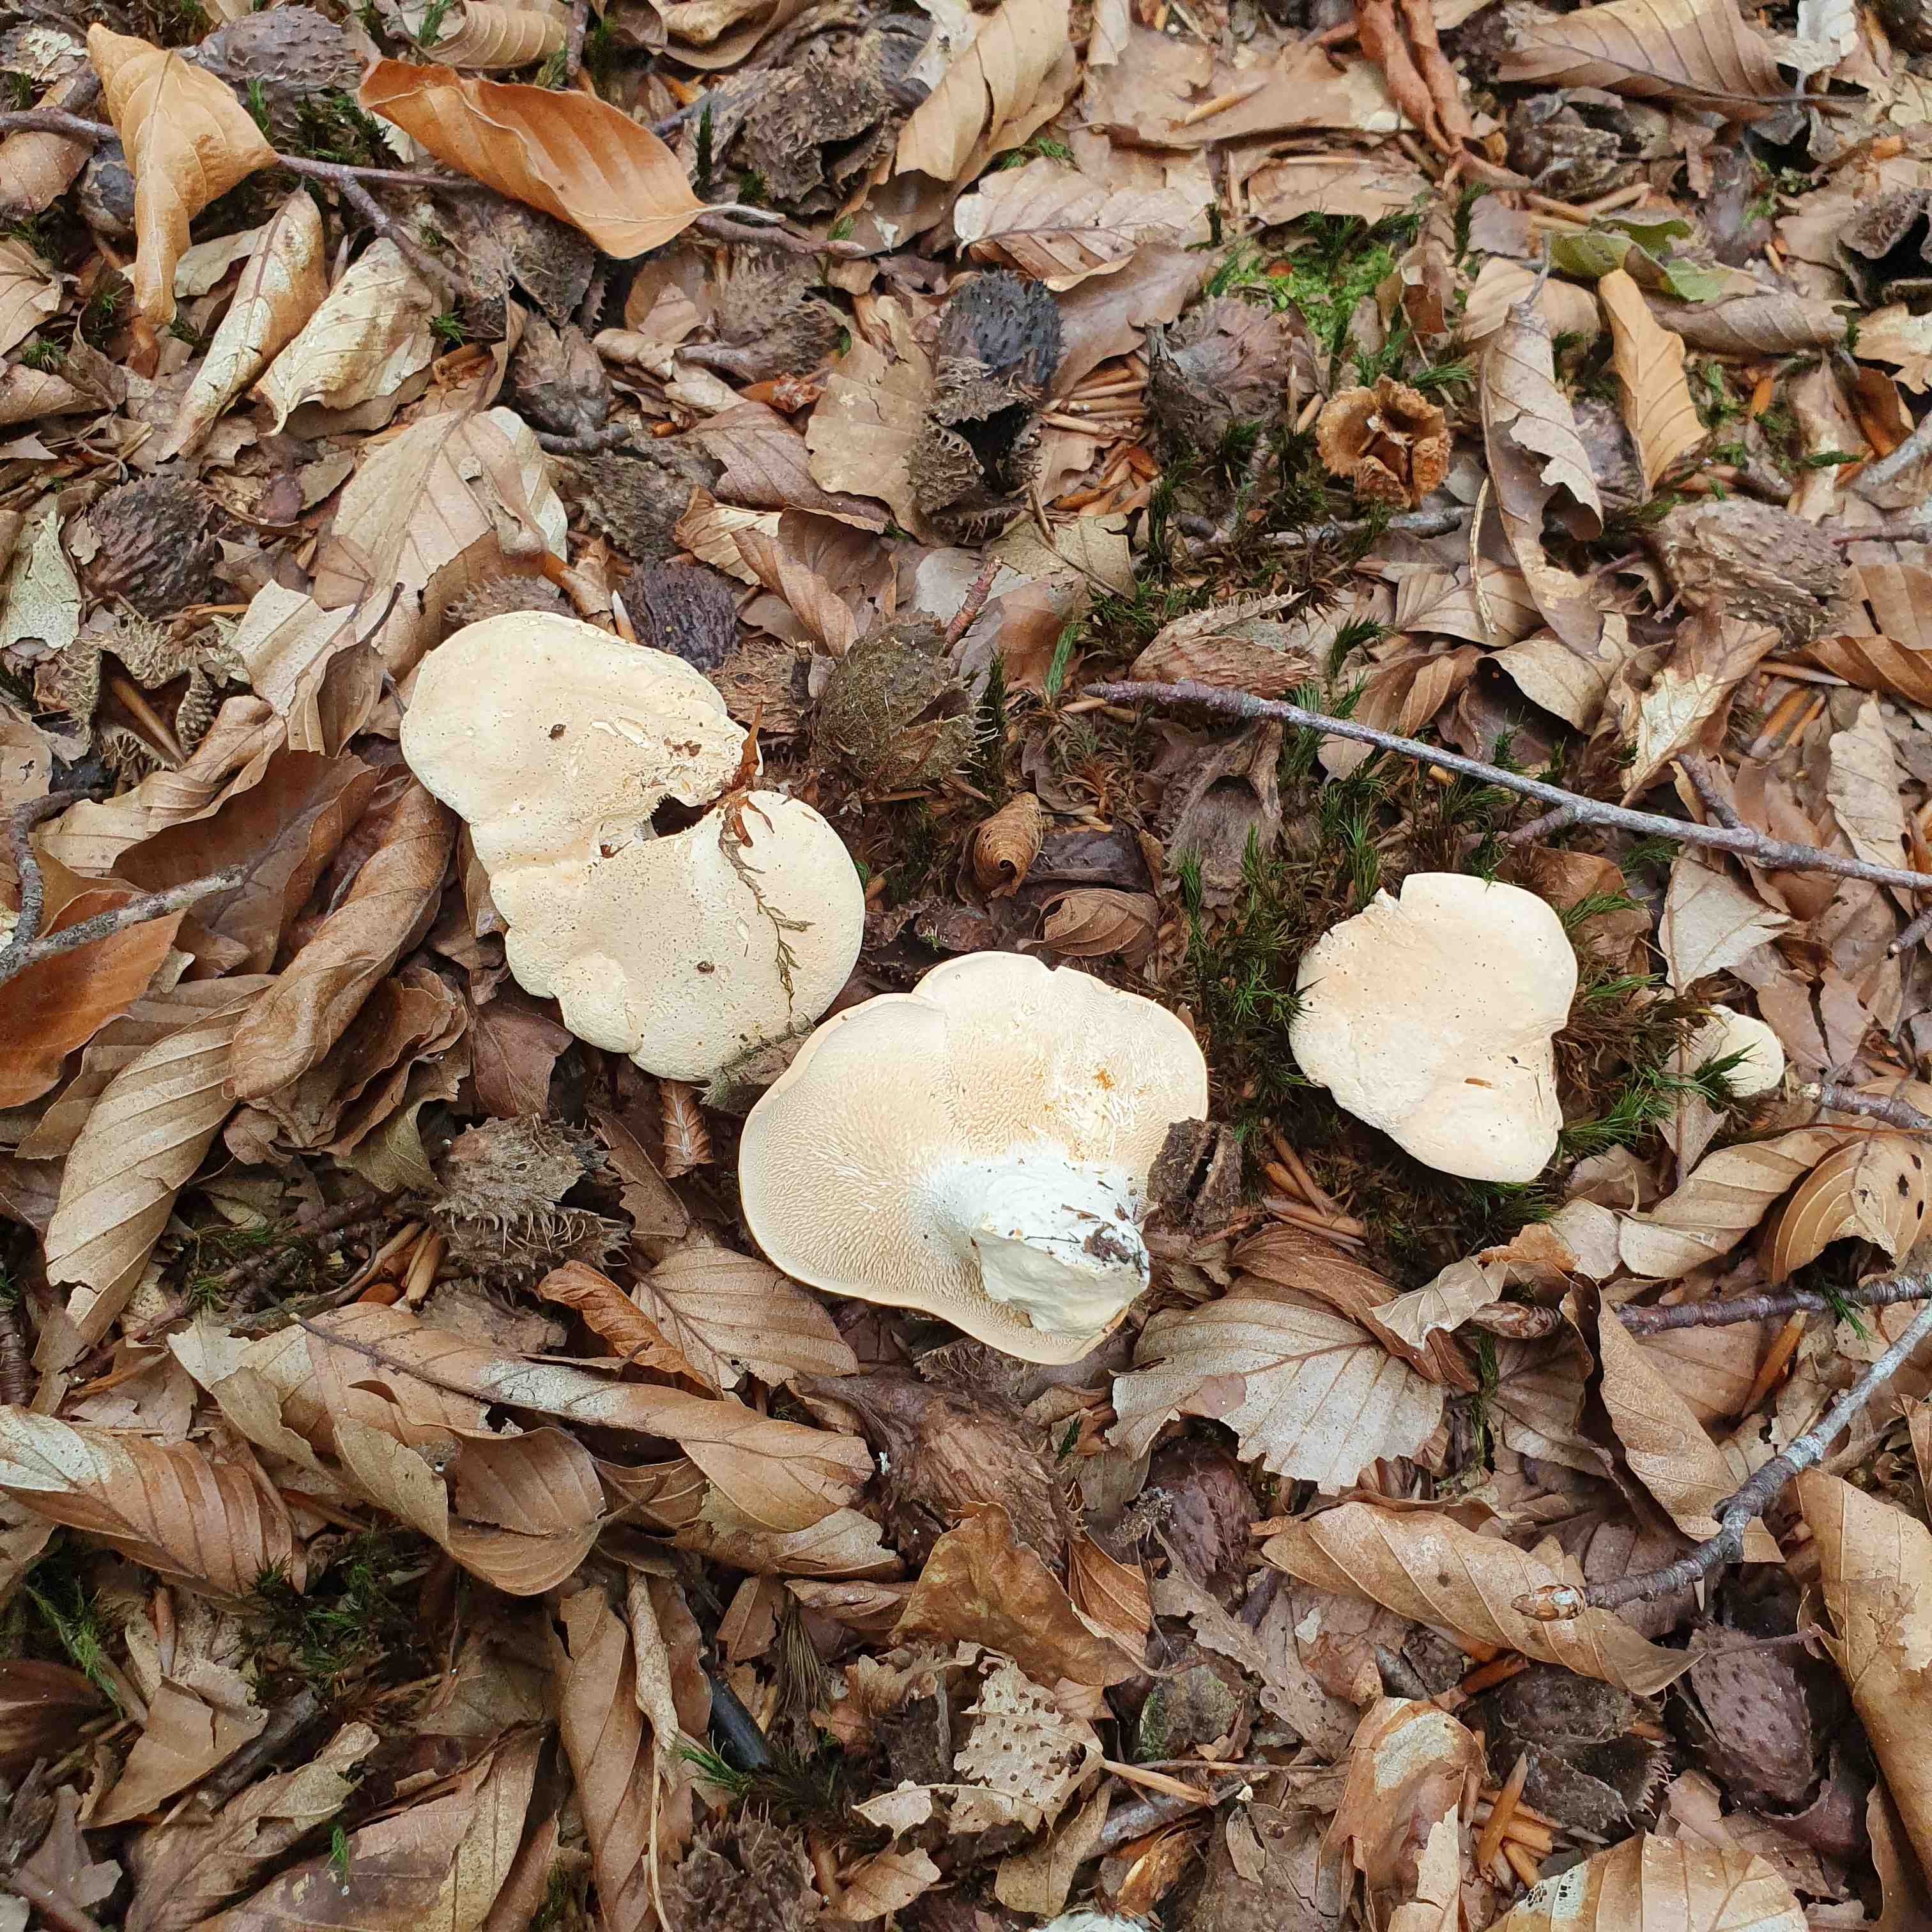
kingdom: Fungi
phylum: Basidiomycota
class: Agaricomycetes
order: Cantharellales
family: Hydnaceae
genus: Hydnum
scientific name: Hydnum repandum
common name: almindelig pigsvamp
